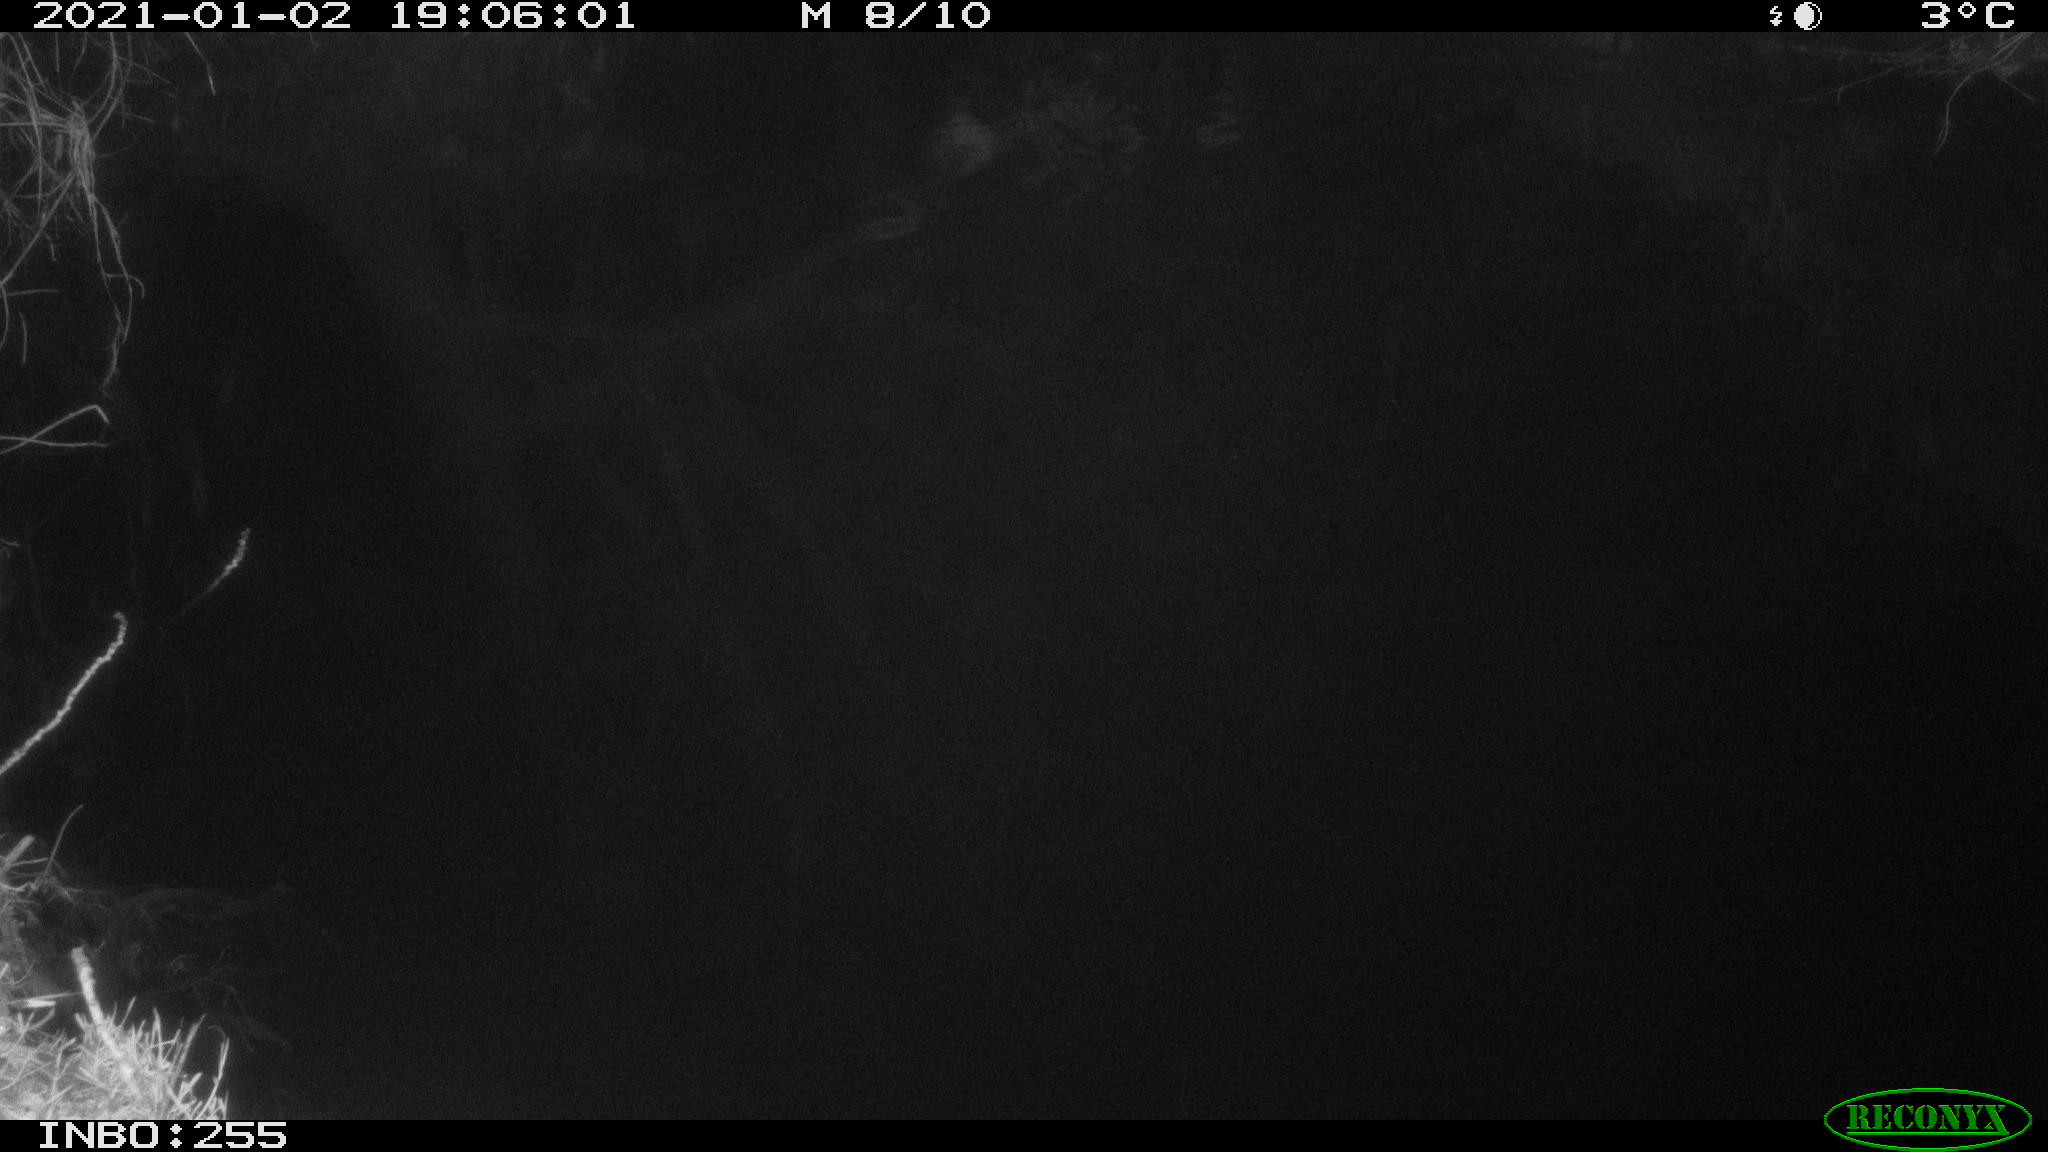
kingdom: Animalia
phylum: Chordata
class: Mammalia
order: Rodentia
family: Muridae
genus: Rattus
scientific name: Rattus norvegicus
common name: Brown rat
